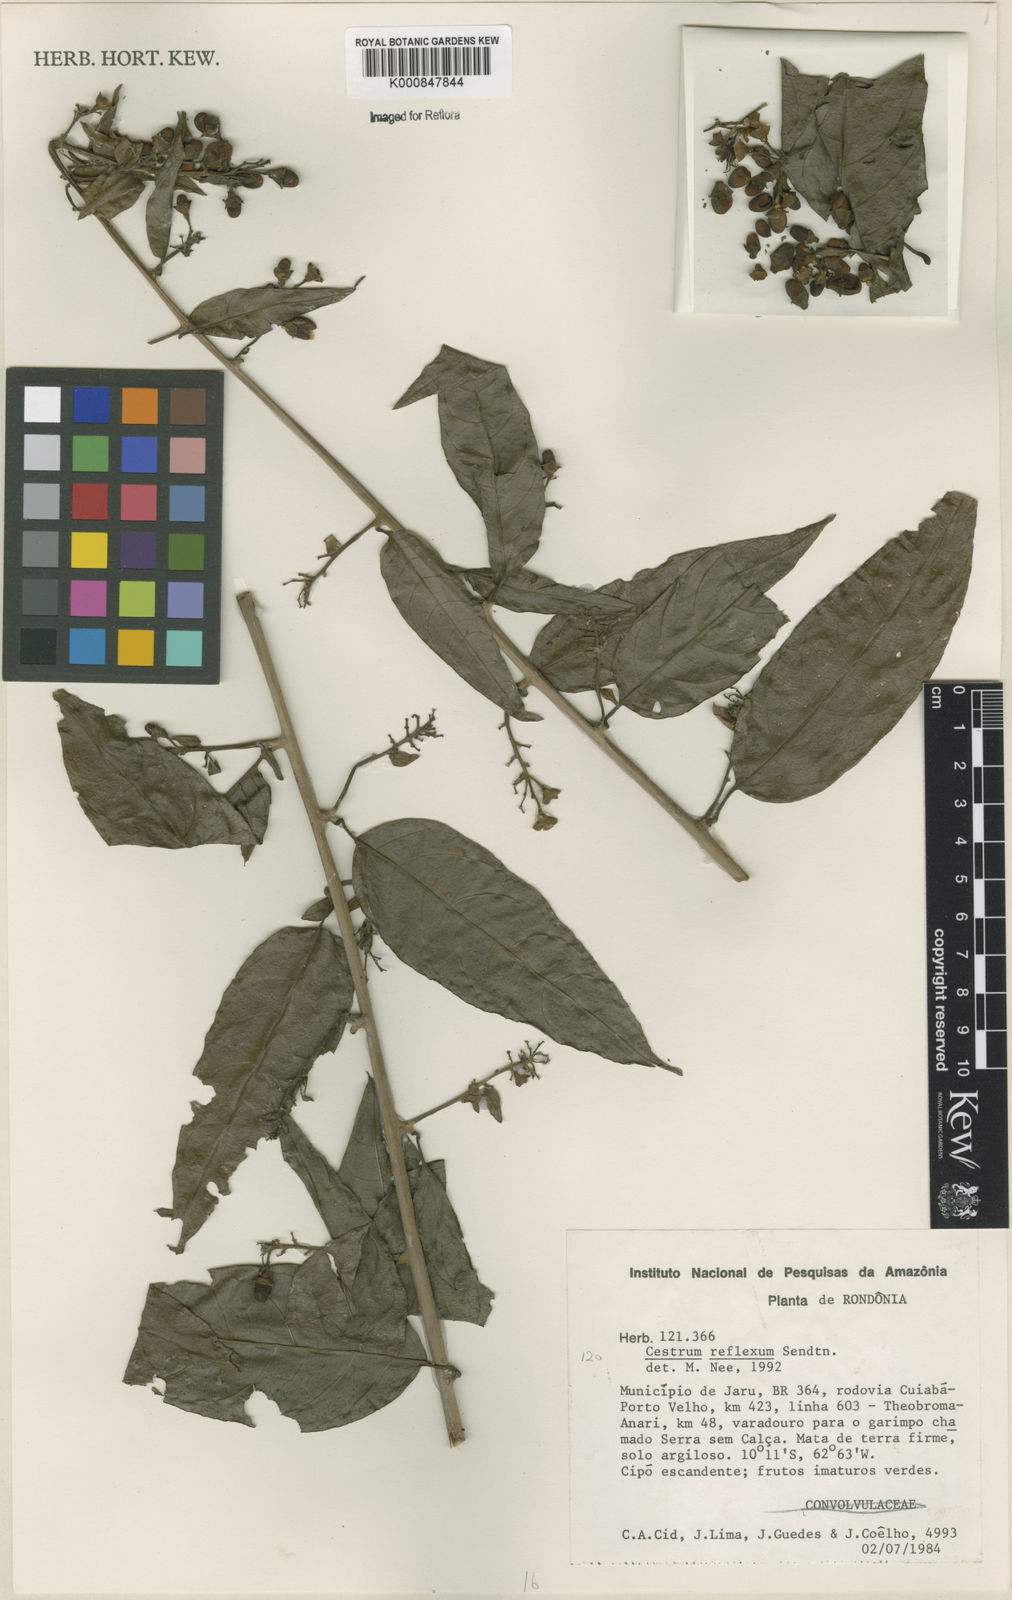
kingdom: Plantae
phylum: Tracheophyta
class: Magnoliopsida
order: Solanales
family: Solanaceae
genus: Cestrum
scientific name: Cestrum reflexum
